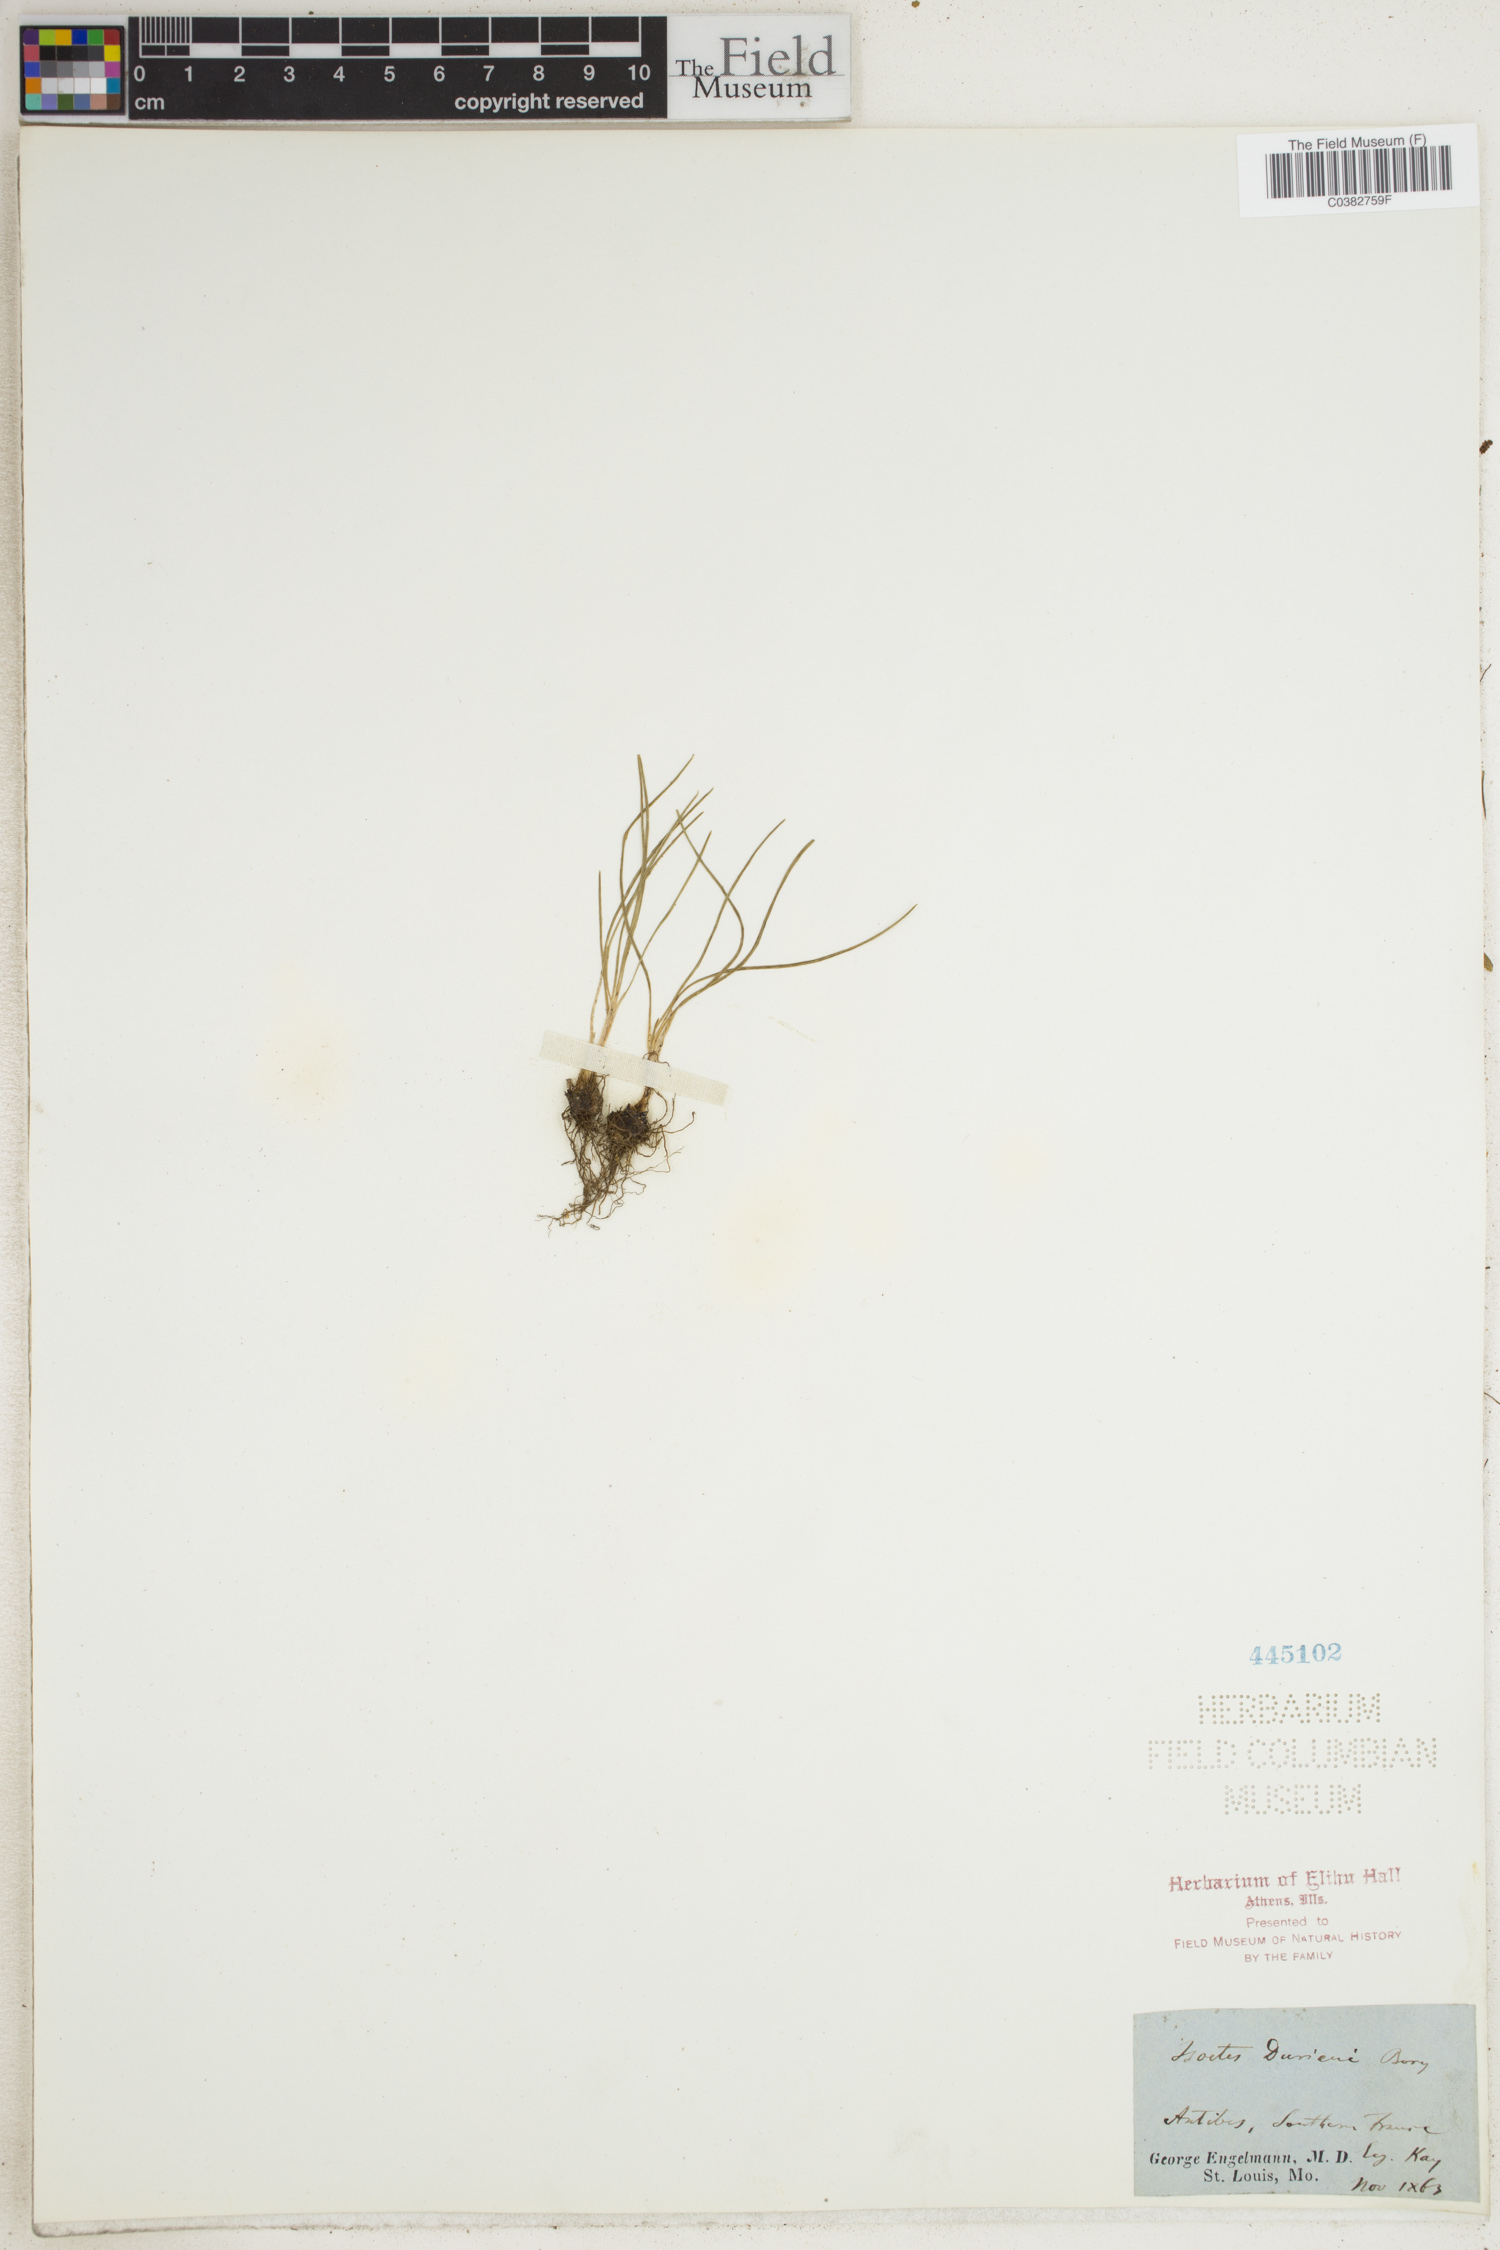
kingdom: Plantae
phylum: Tracheophyta
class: Lycopodiopsida
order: Isoetales
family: Isoetaceae
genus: Isoetes
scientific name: Isoetes duriei
